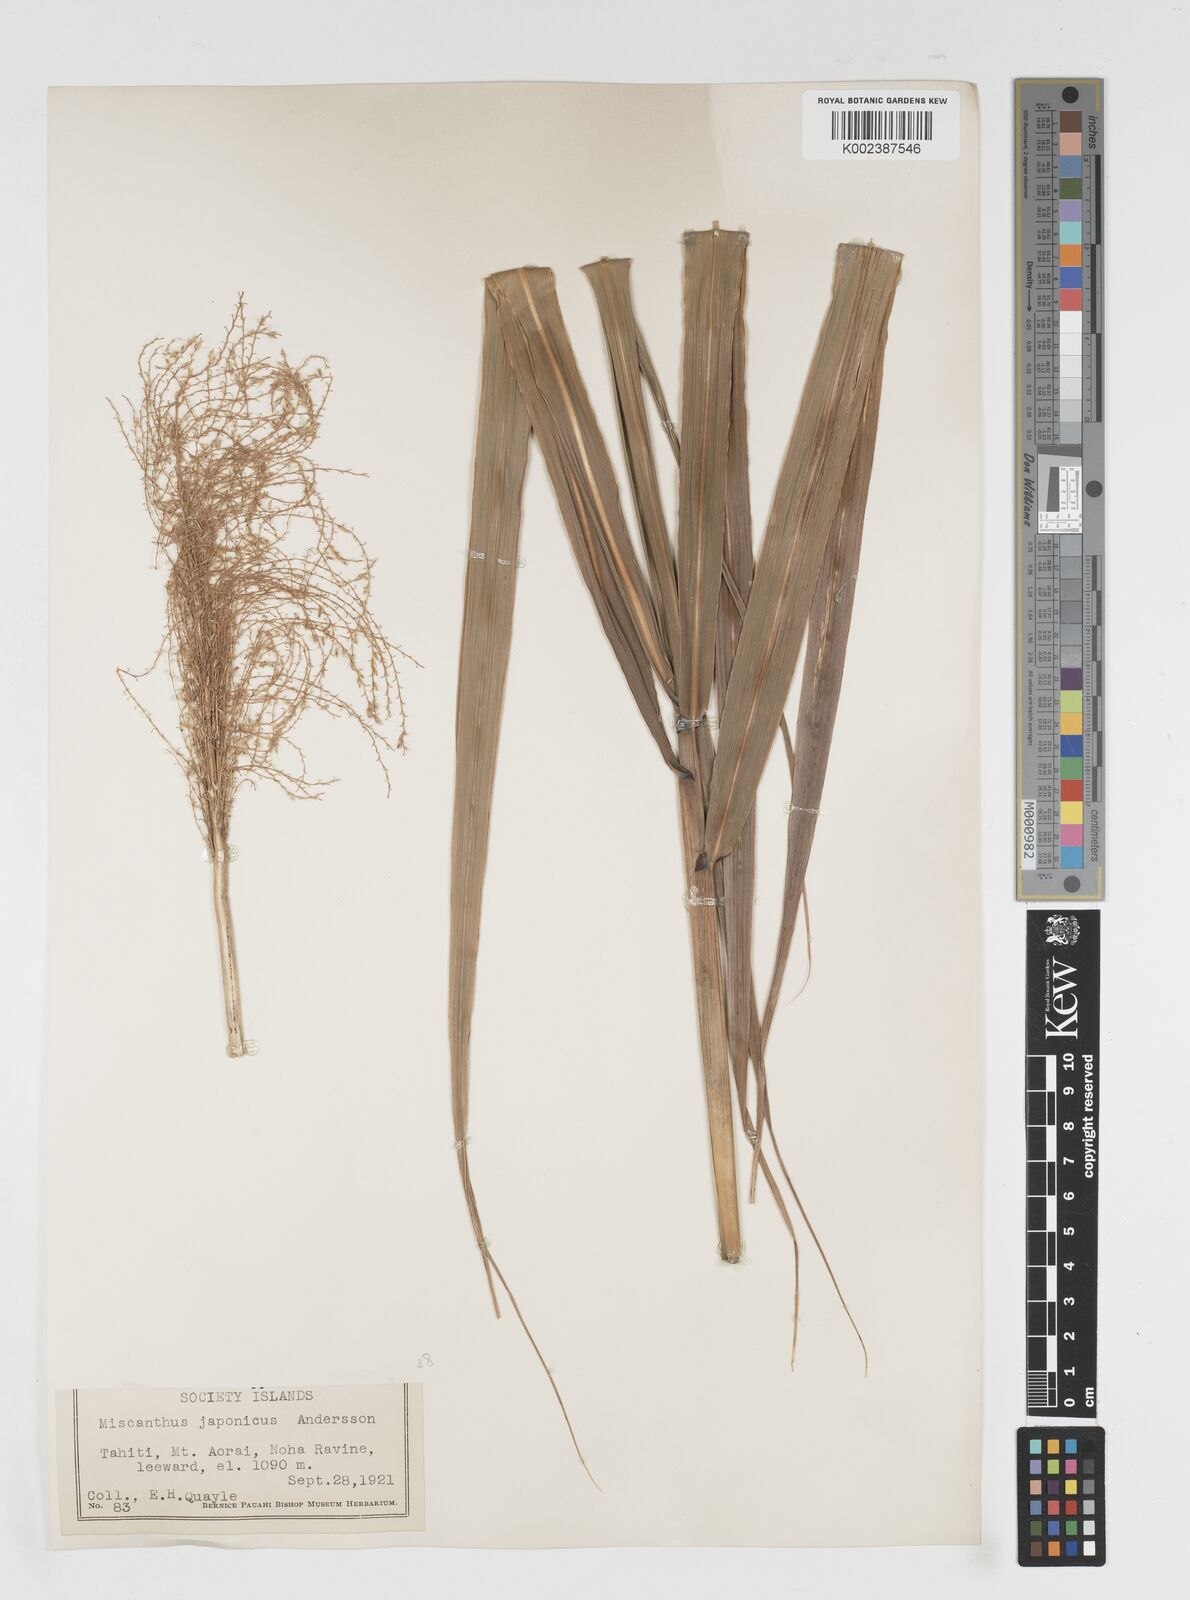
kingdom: Plantae
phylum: Tracheophyta
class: Liliopsida
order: Poales
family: Poaceae
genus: Miscanthus
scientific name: Miscanthus floridulus
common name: Pacific island silvergrass
